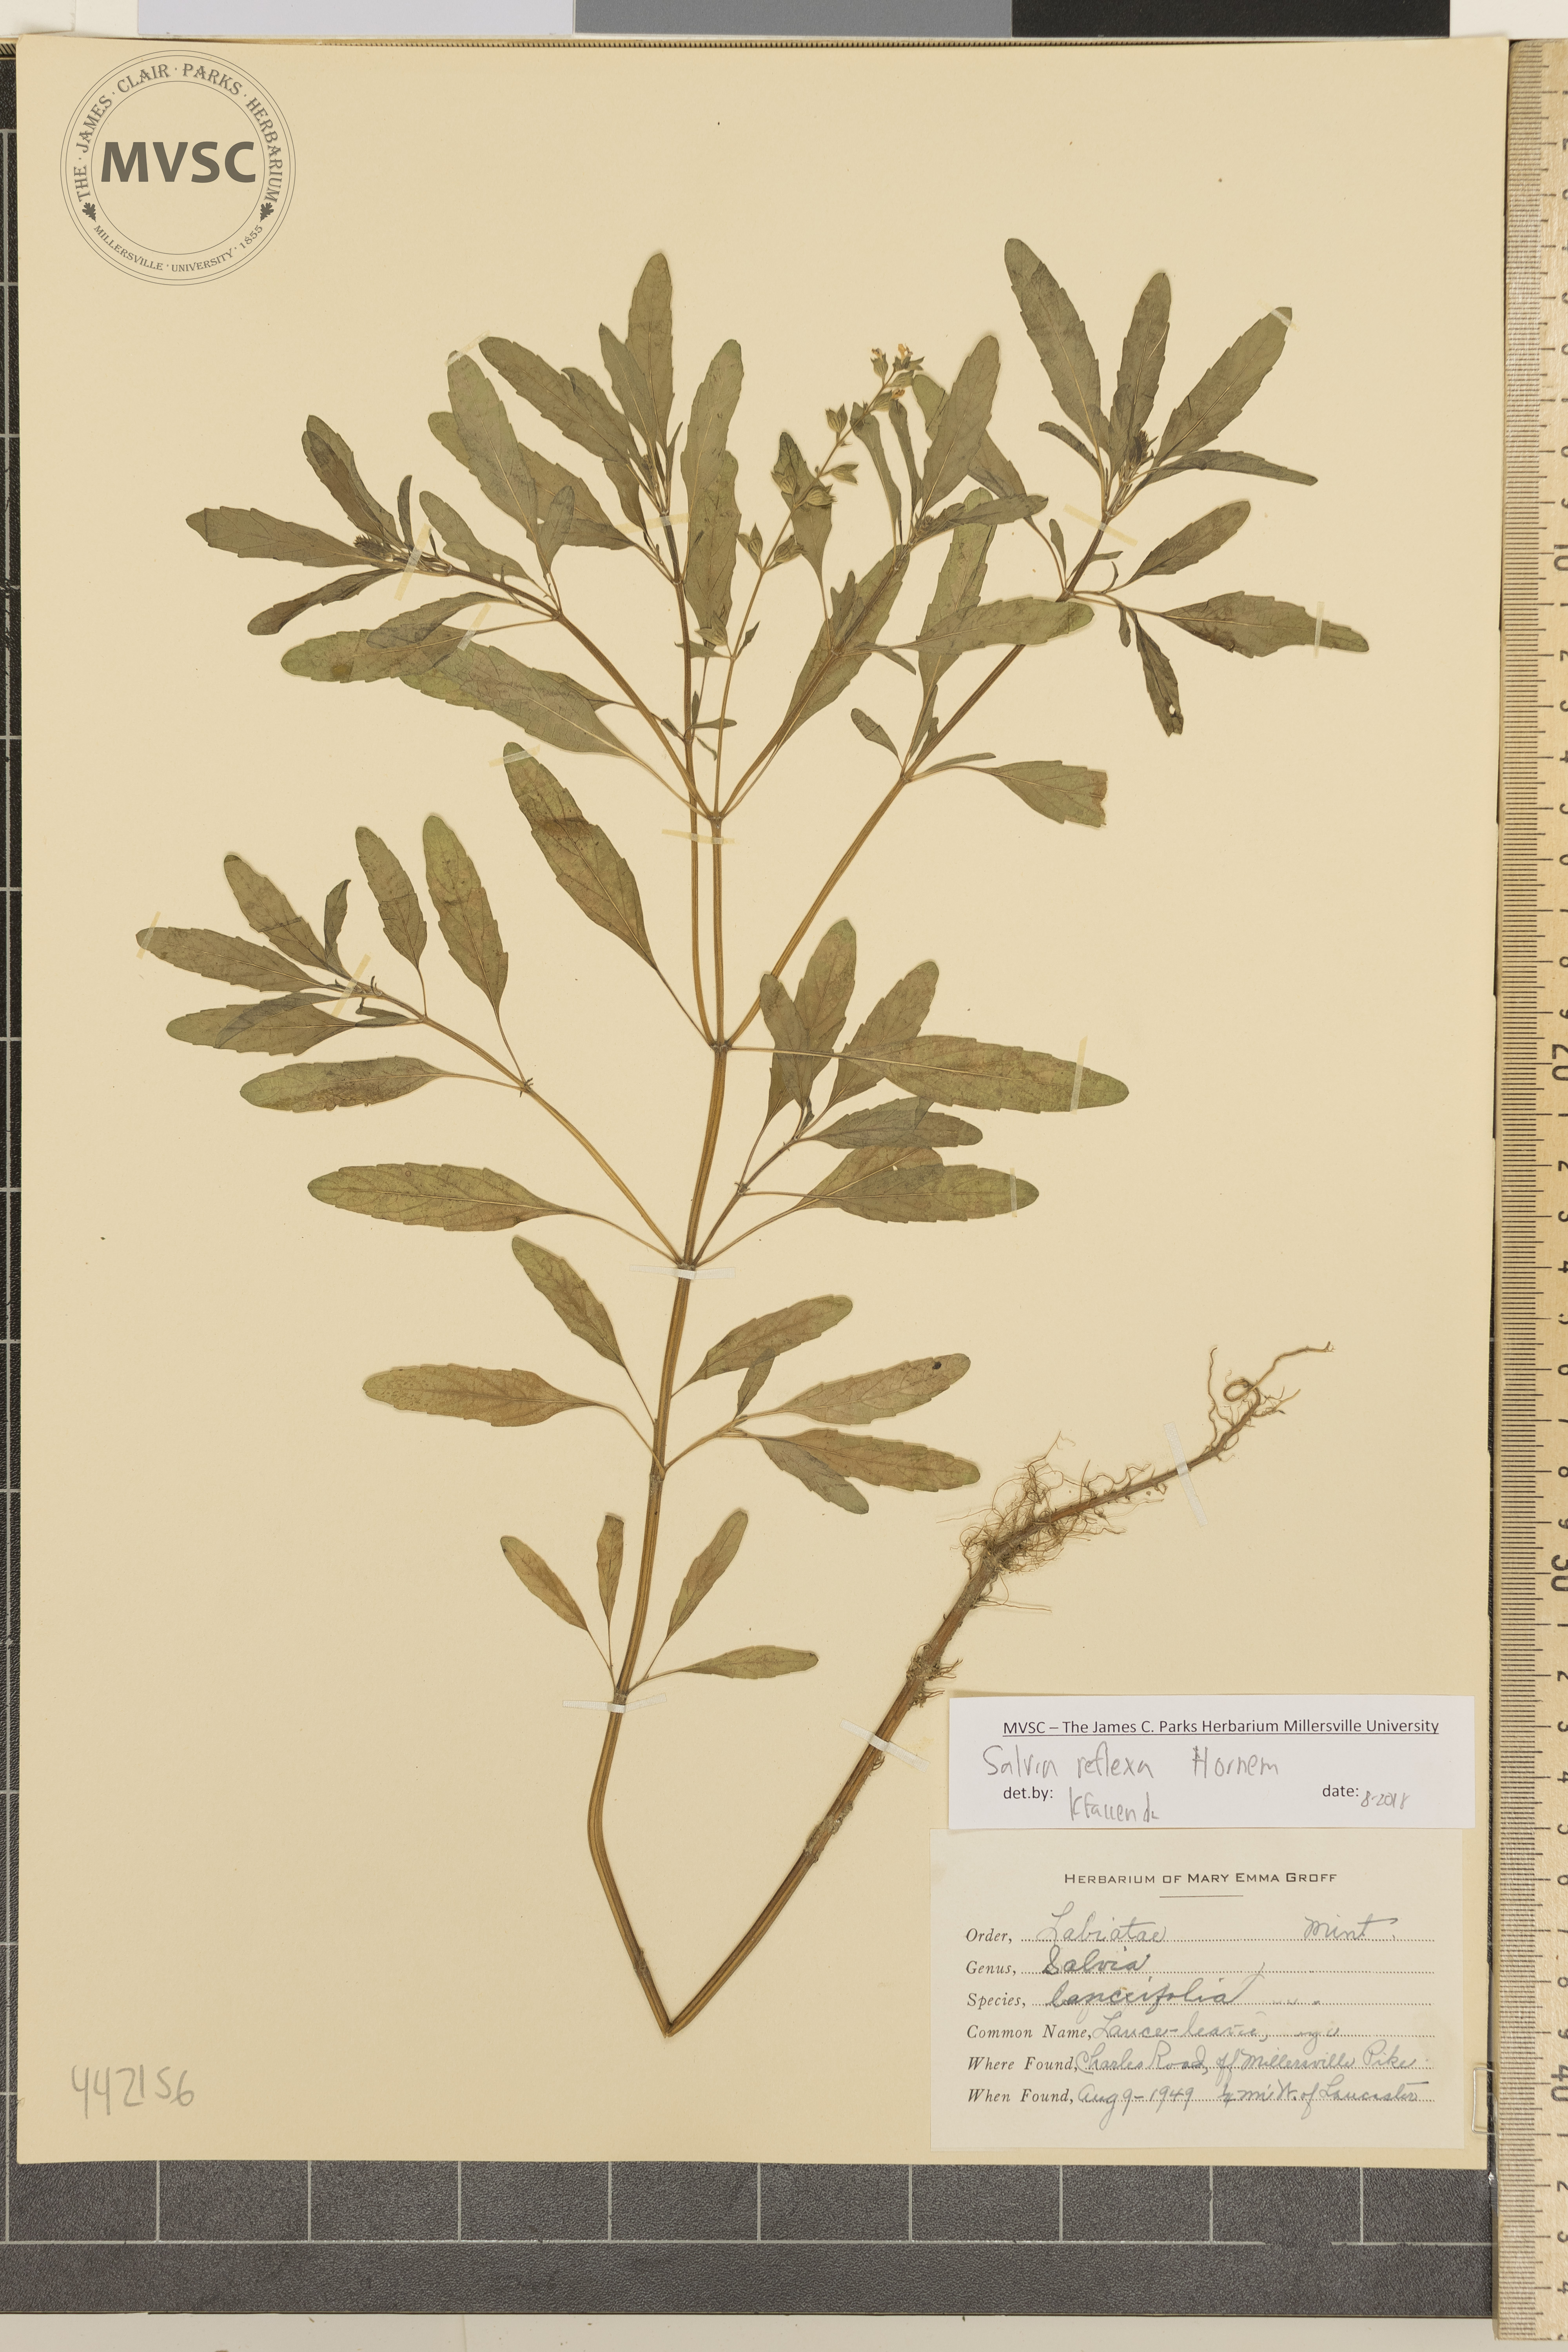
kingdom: Plantae
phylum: Tracheophyta
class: Magnoliopsida
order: Lamiales
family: Lamiaceae
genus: Salvia
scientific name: Salvia reflexa
